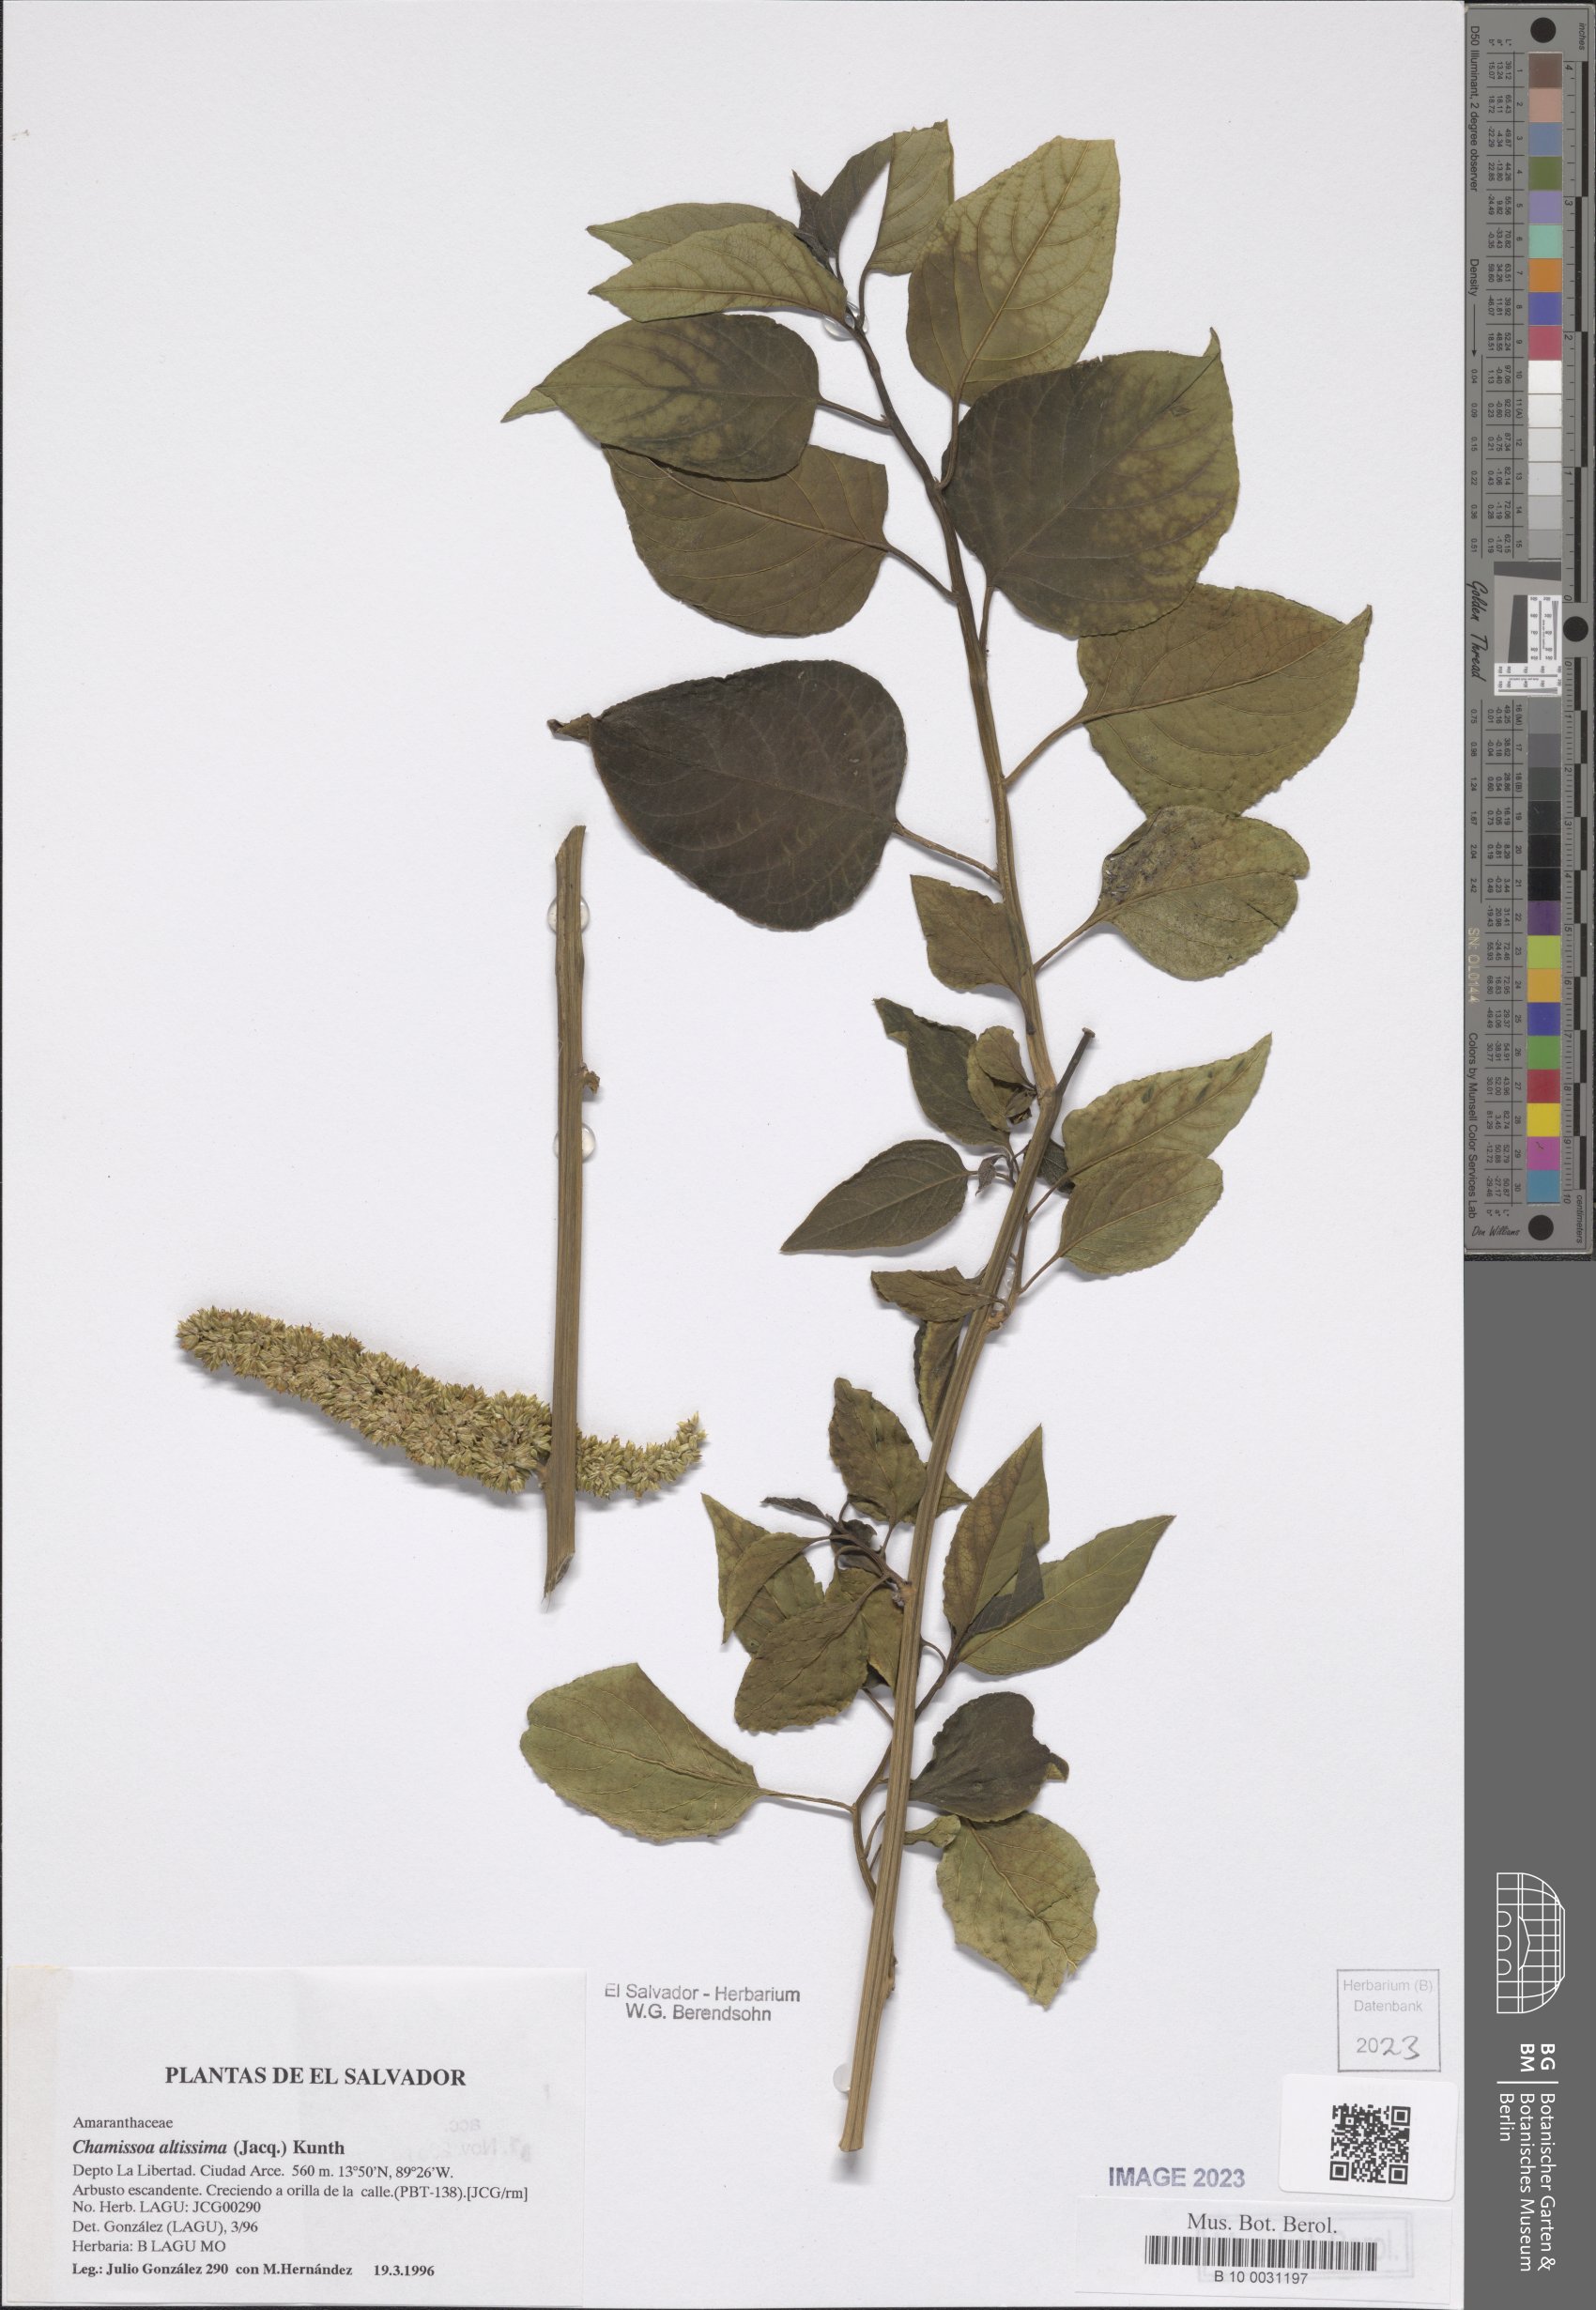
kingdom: Plantae
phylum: Tracheophyta
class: Magnoliopsida
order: Caryophyllales
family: Amaranthaceae
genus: Chamissoa
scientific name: Chamissoa altissima
